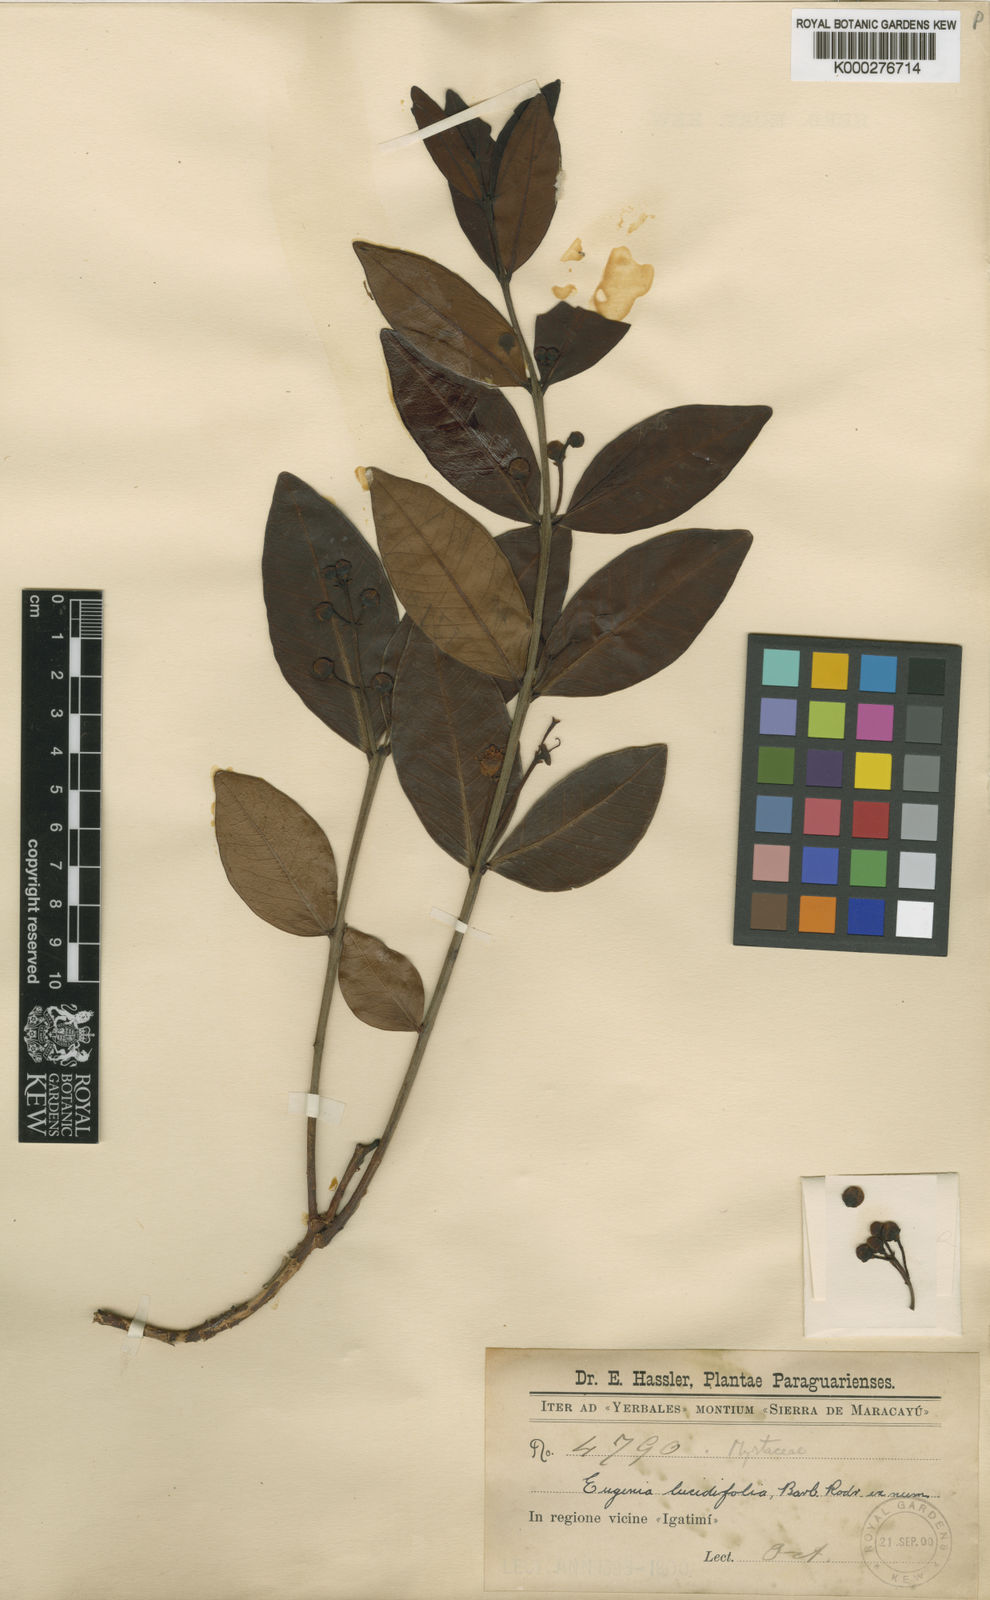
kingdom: Plantae
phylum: Tracheophyta
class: Magnoliopsida
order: Myrtales
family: Myrtaceae
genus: Eugenia
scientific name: Eugenia
